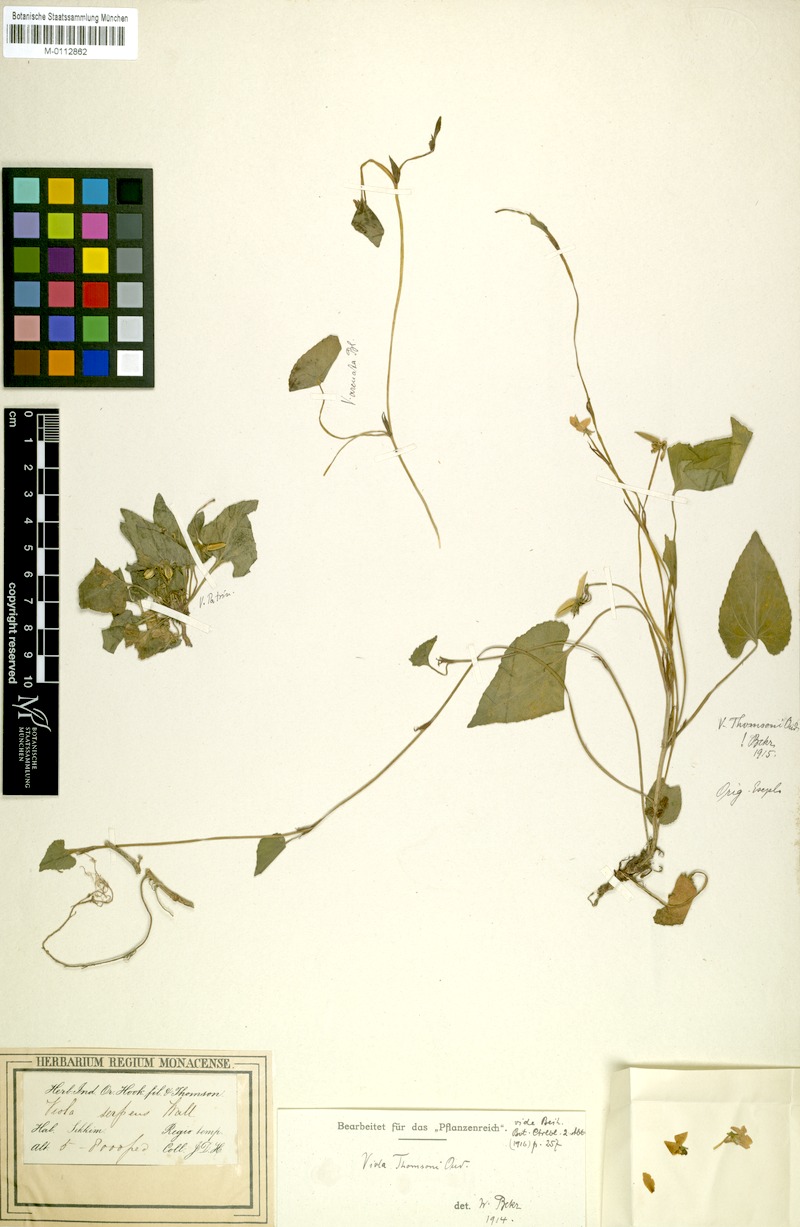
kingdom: Plantae
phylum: Tracheophyta
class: Magnoliopsida
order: Malpighiales
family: Violaceae
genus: Viola
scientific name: Viola thomsonii
